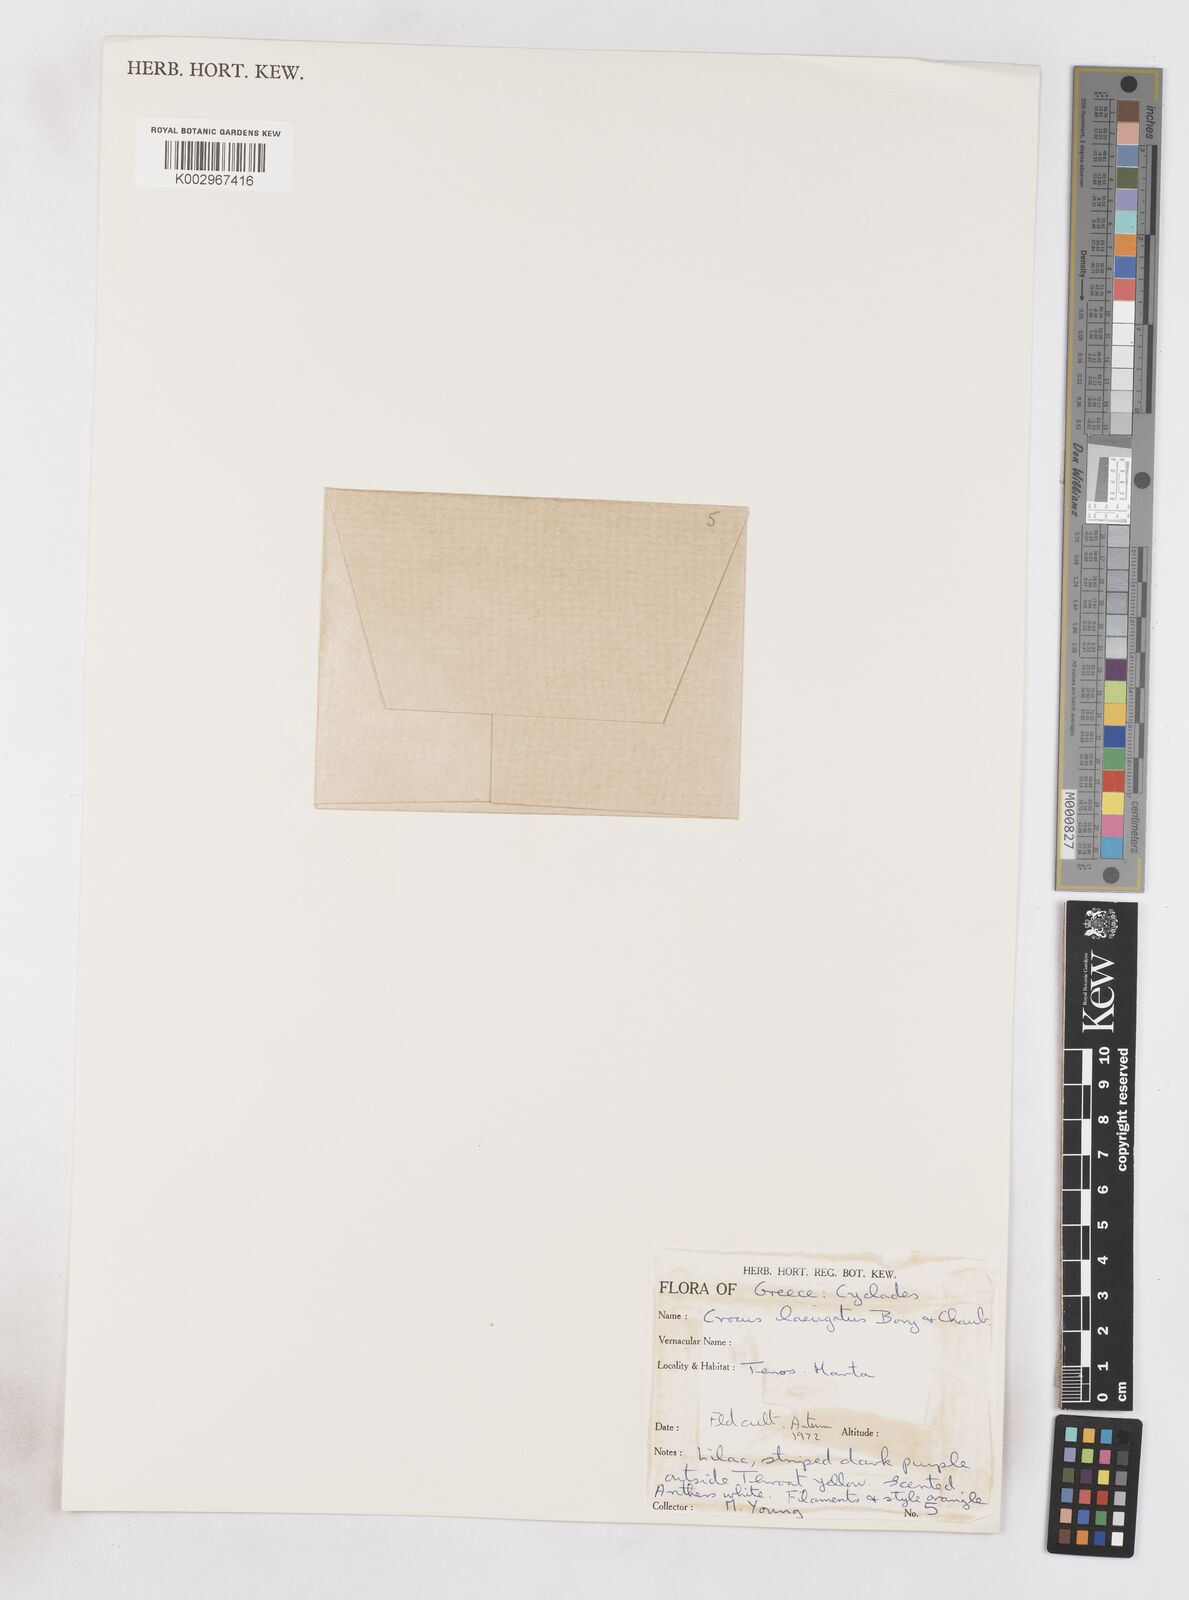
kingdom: Plantae
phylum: Tracheophyta
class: Liliopsida
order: Asparagales
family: Iridaceae
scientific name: Iridaceae
